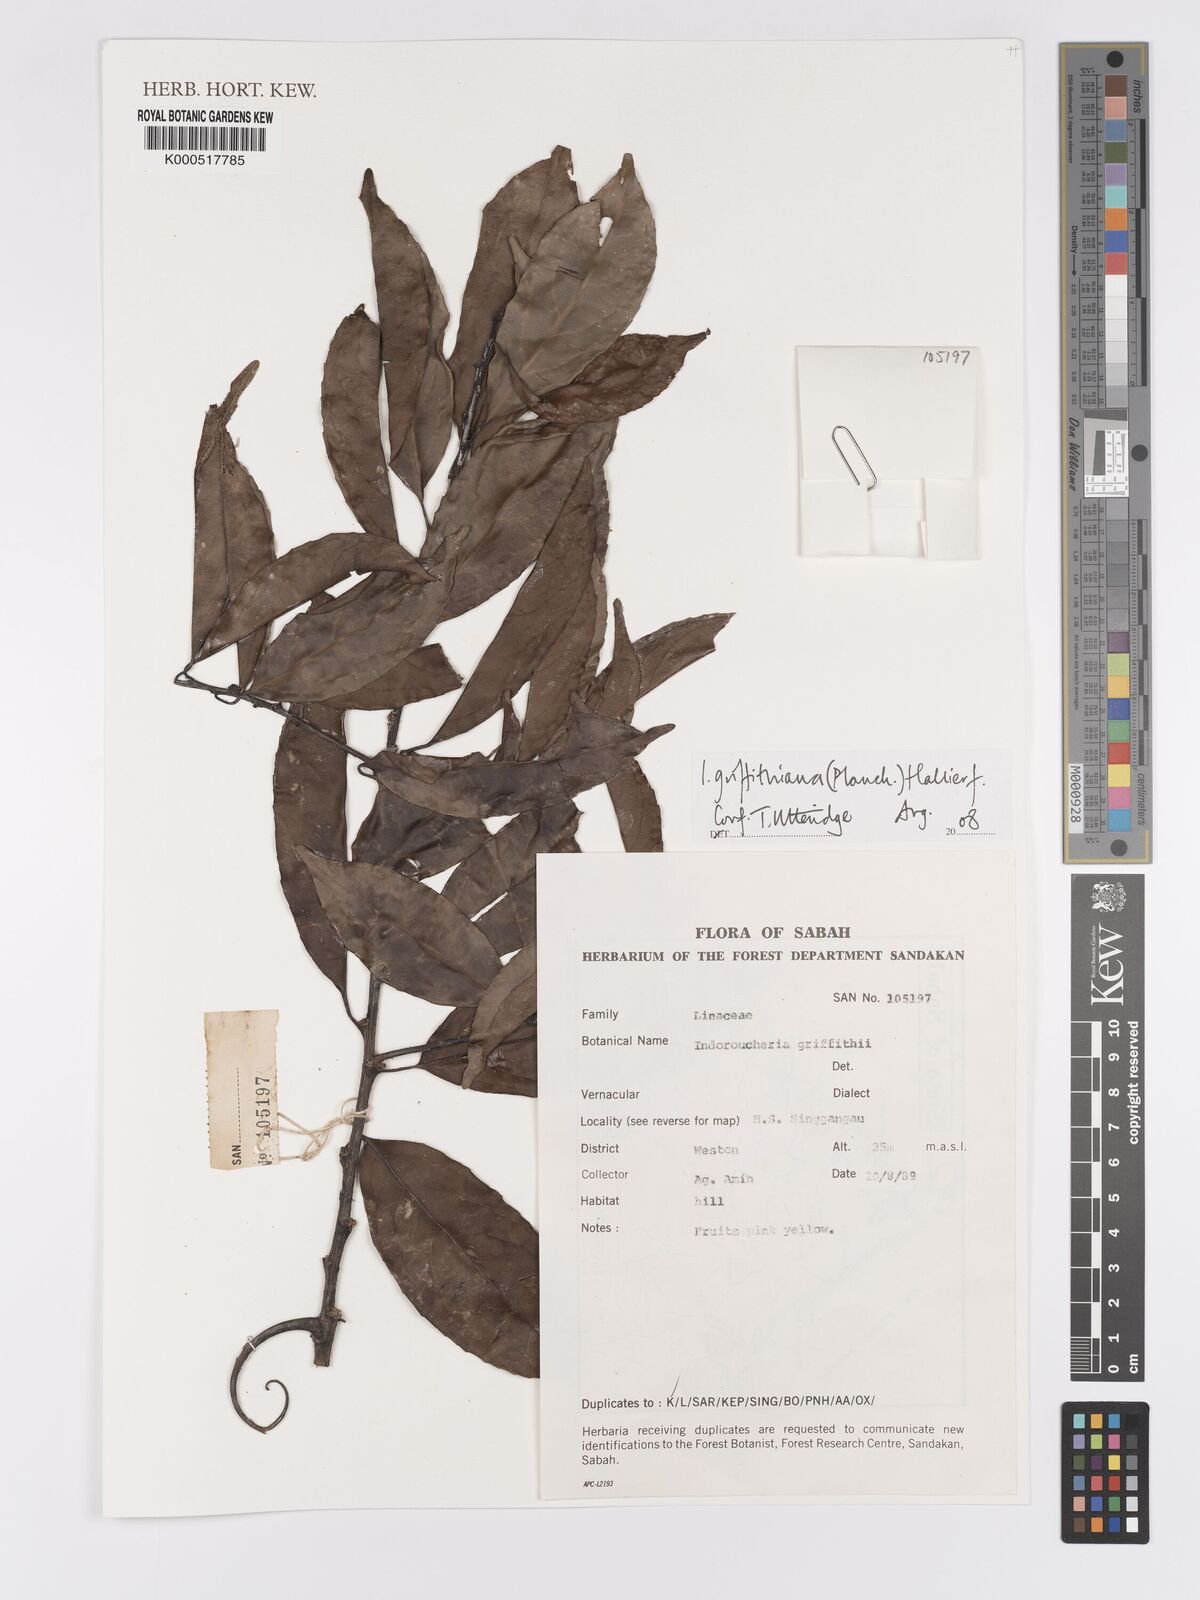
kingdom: Plantae
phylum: Tracheophyta
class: Magnoliopsida
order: Malpighiales
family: Linaceae
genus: Indorouchera
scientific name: Indorouchera griffithiana
